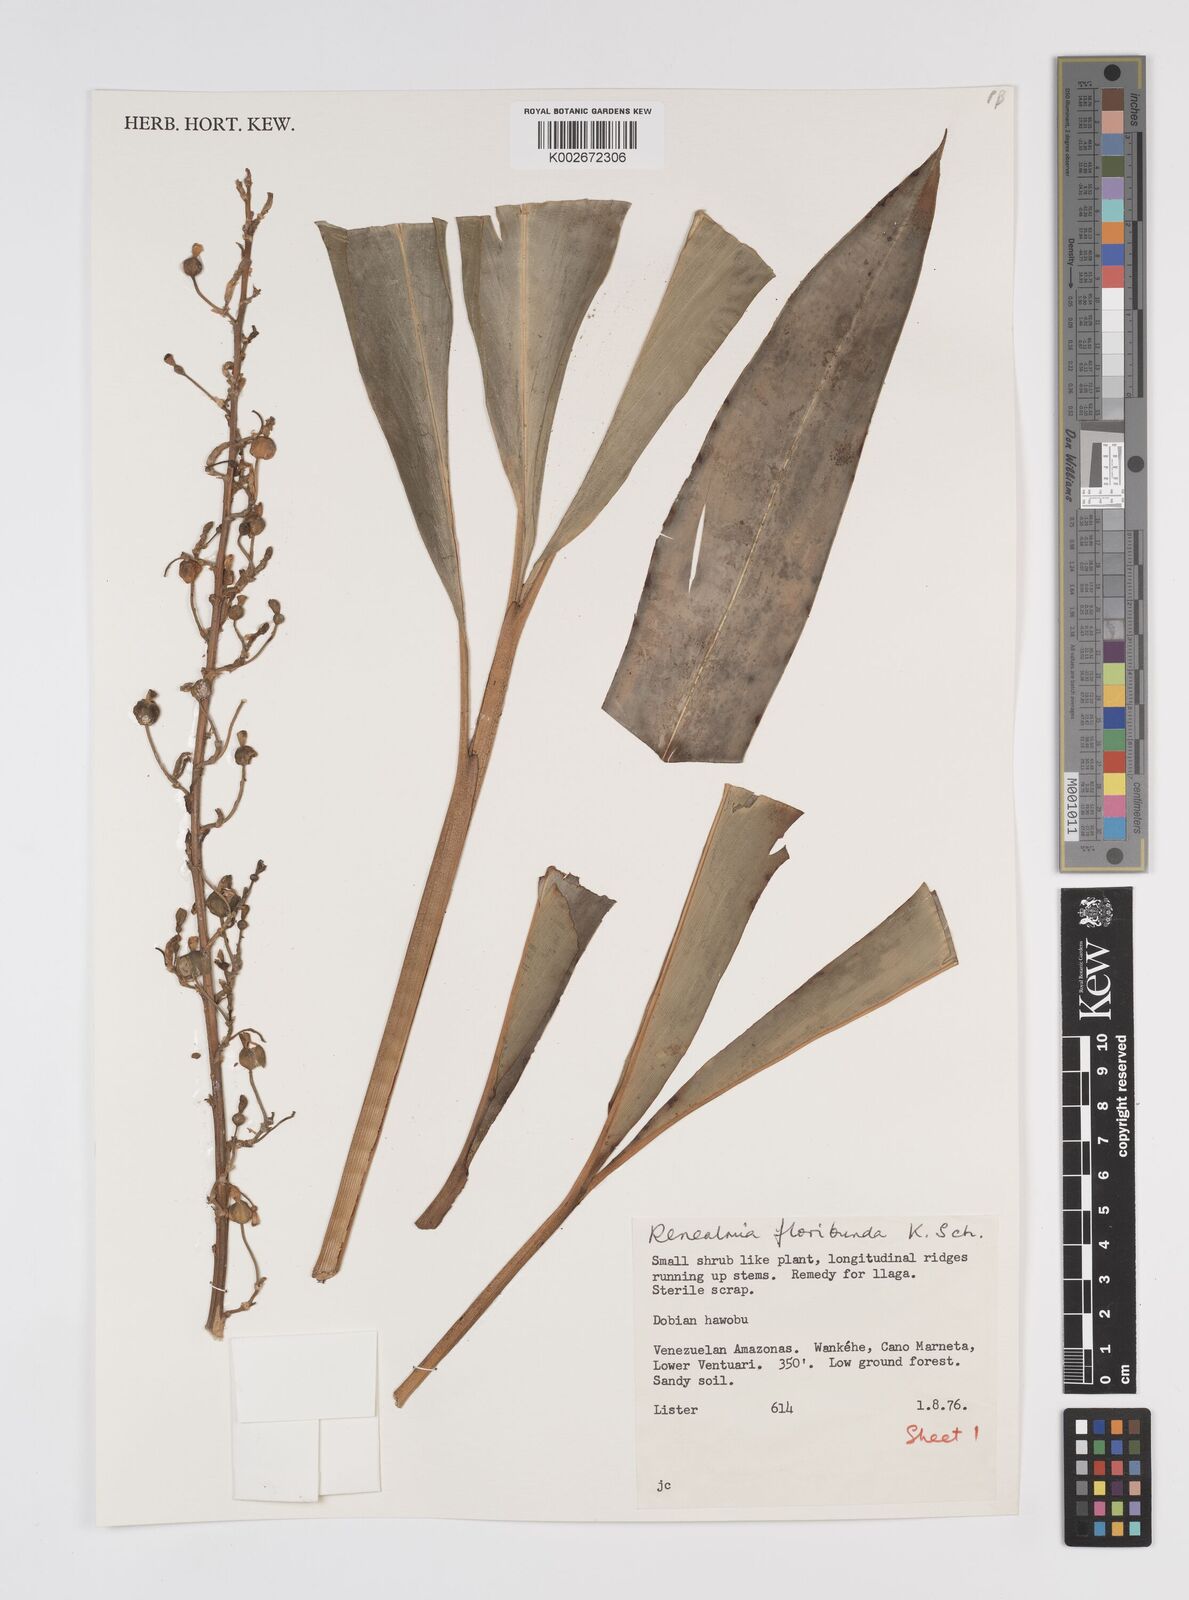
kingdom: Plantae
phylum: Tracheophyta
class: Liliopsida
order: Zingiberales
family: Zingiberaceae
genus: Renealmia
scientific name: Renealmia floribunda
